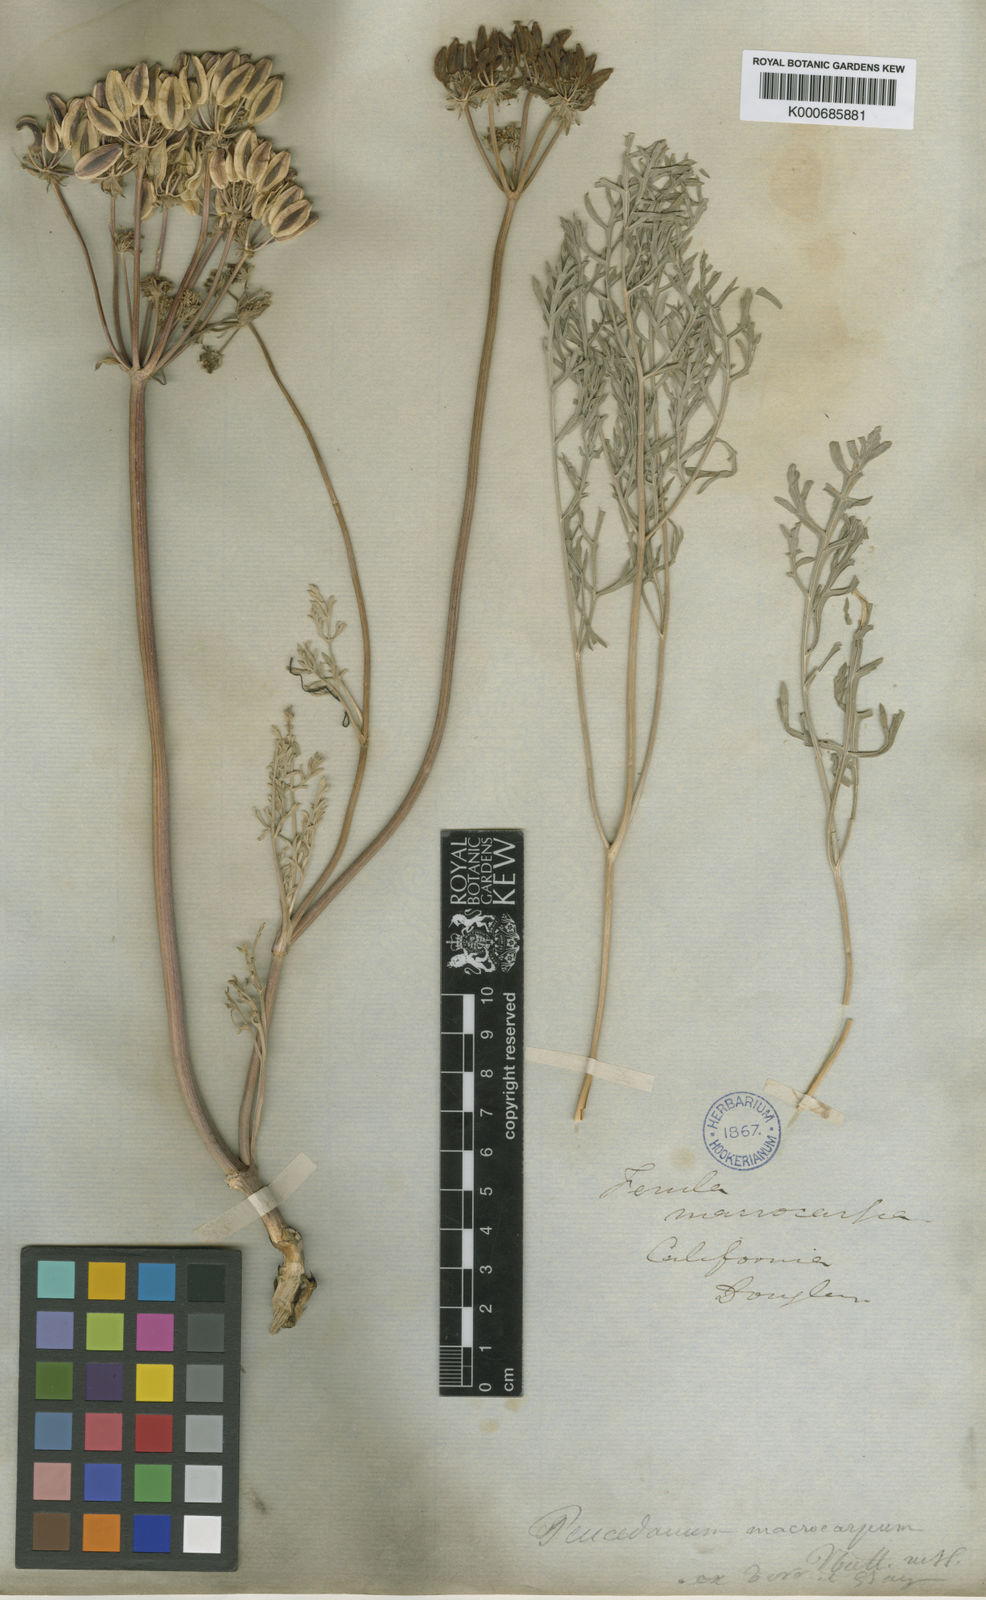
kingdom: Plantae
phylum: Tracheophyta
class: Magnoliopsida
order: Apiales
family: Apiaceae
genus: Lomatium
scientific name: Lomatium macrocarpum
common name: Big-seed biscuitroot
